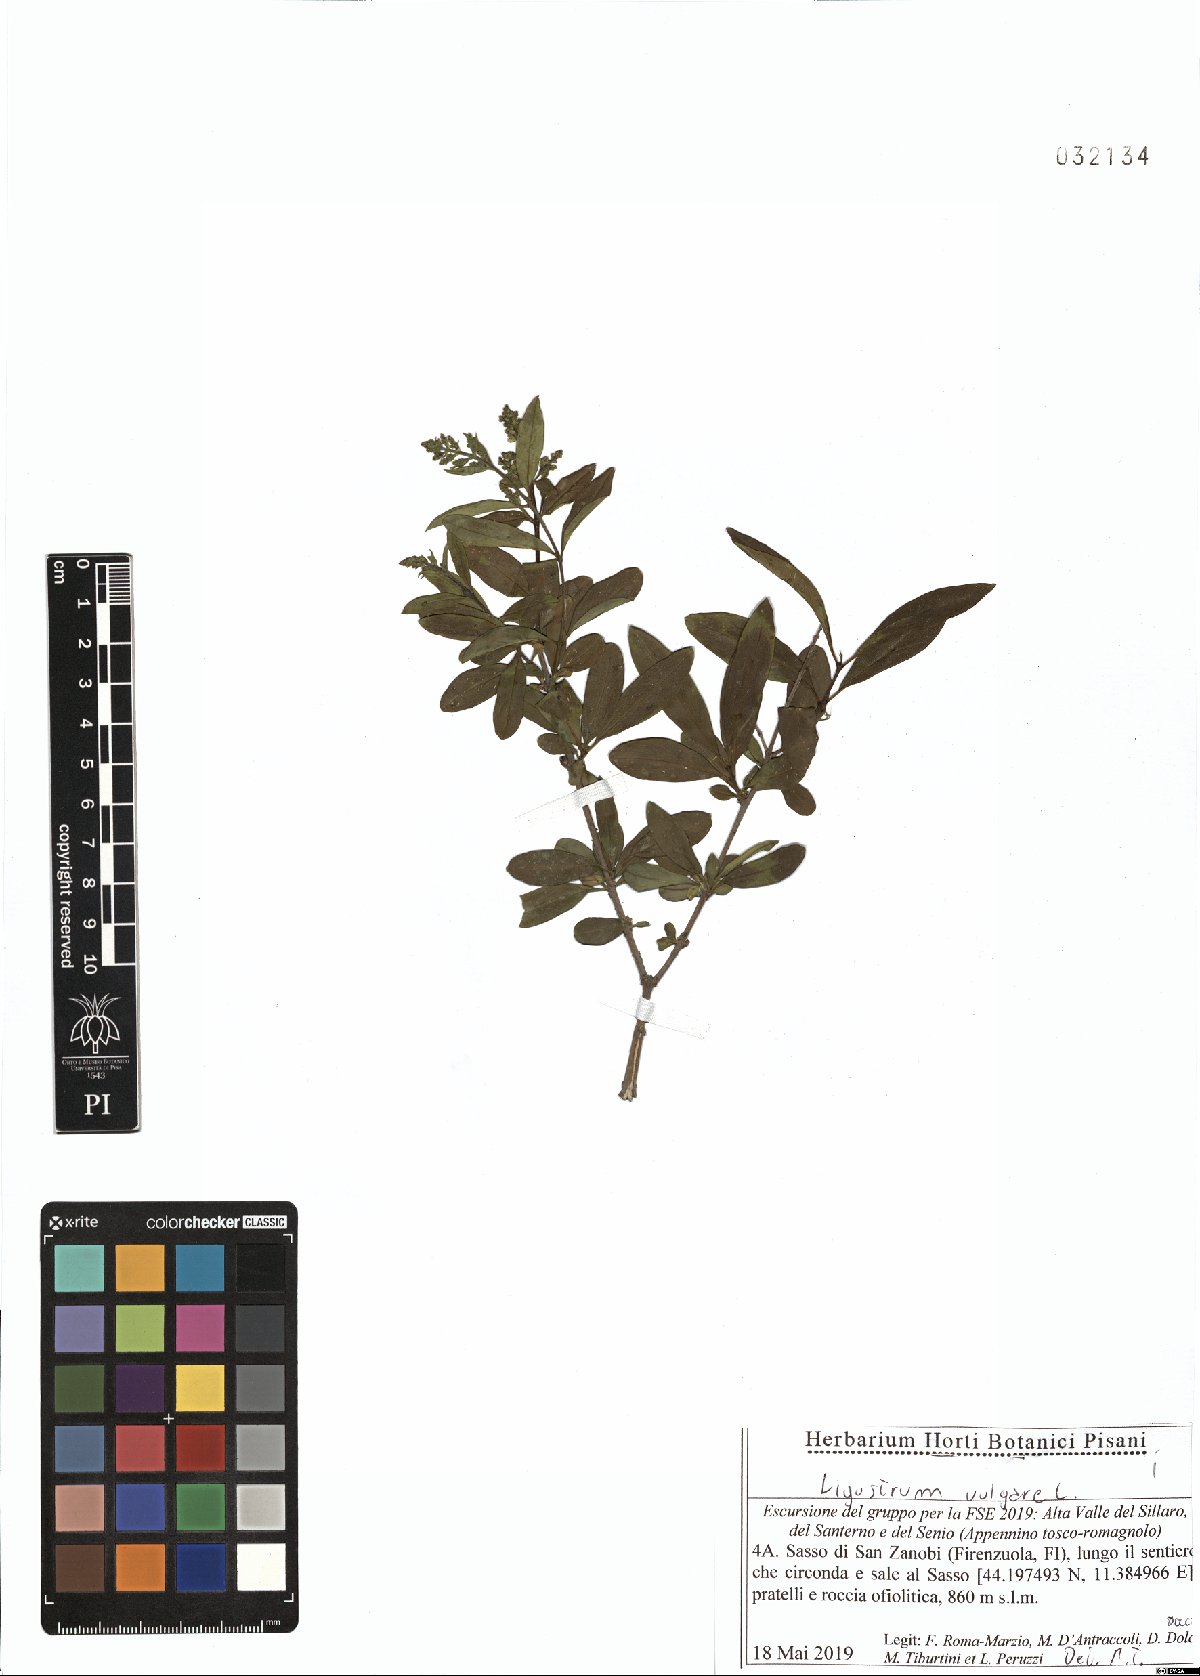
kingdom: Plantae
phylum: Tracheophyta
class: Magnoliopsida
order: Lamiales
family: Oleaceae
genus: Ligustrum
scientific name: Ligustrum vulgare
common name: Wild privet
